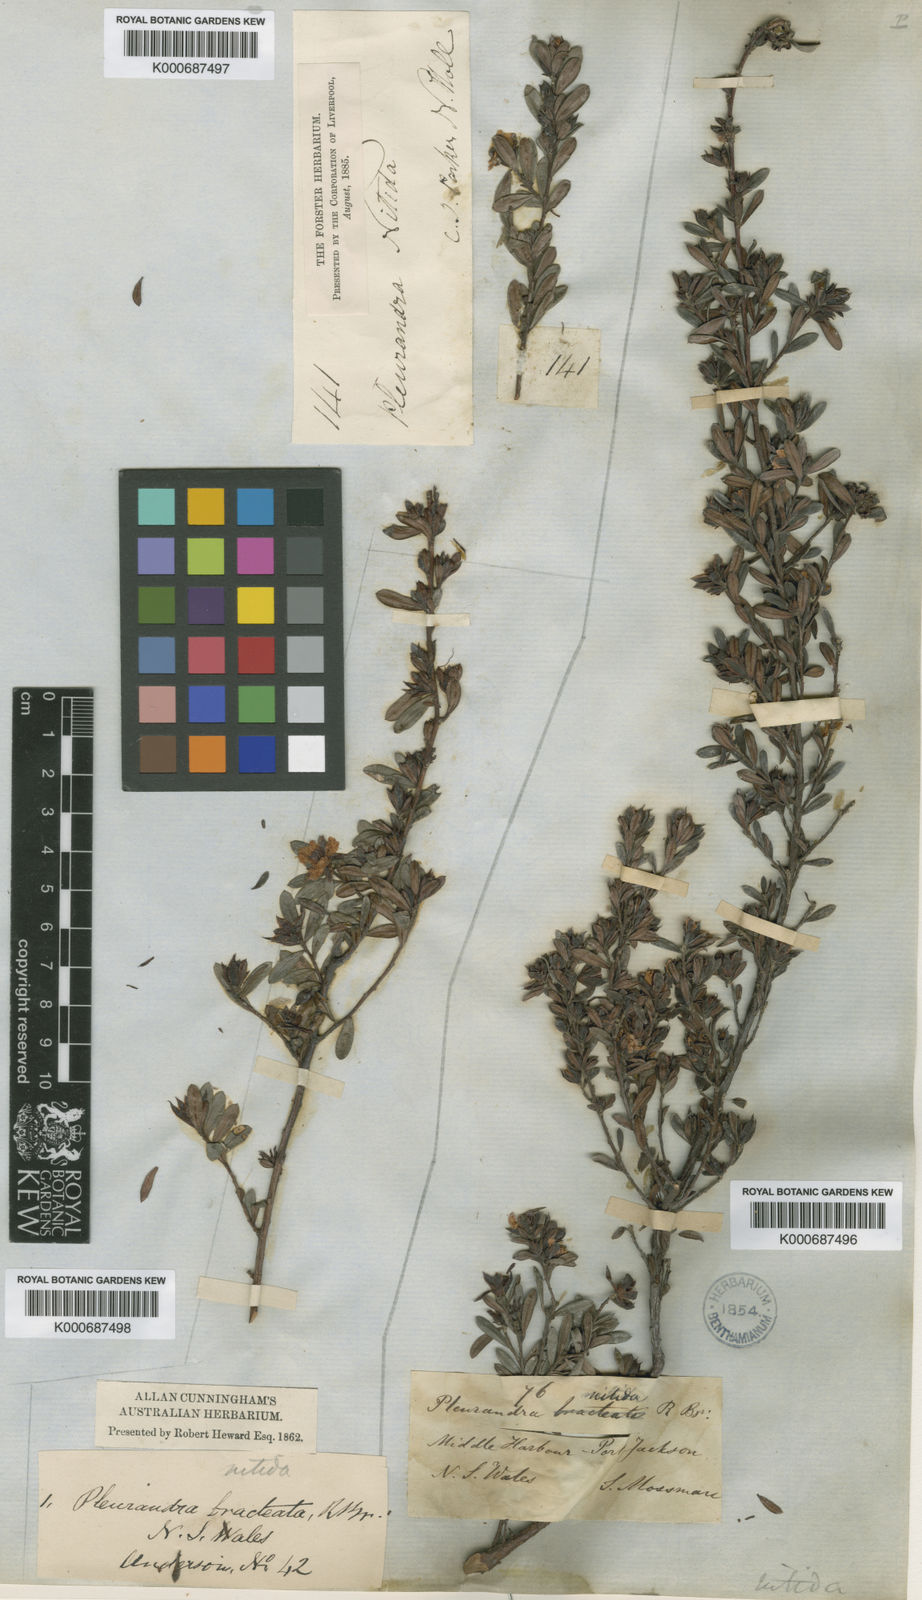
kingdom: Plantae
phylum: Tracheophyta
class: Magnoliopsida
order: Dilleniales
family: Dilleniaceae
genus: Hibbertia
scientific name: Hibbertia nitida
